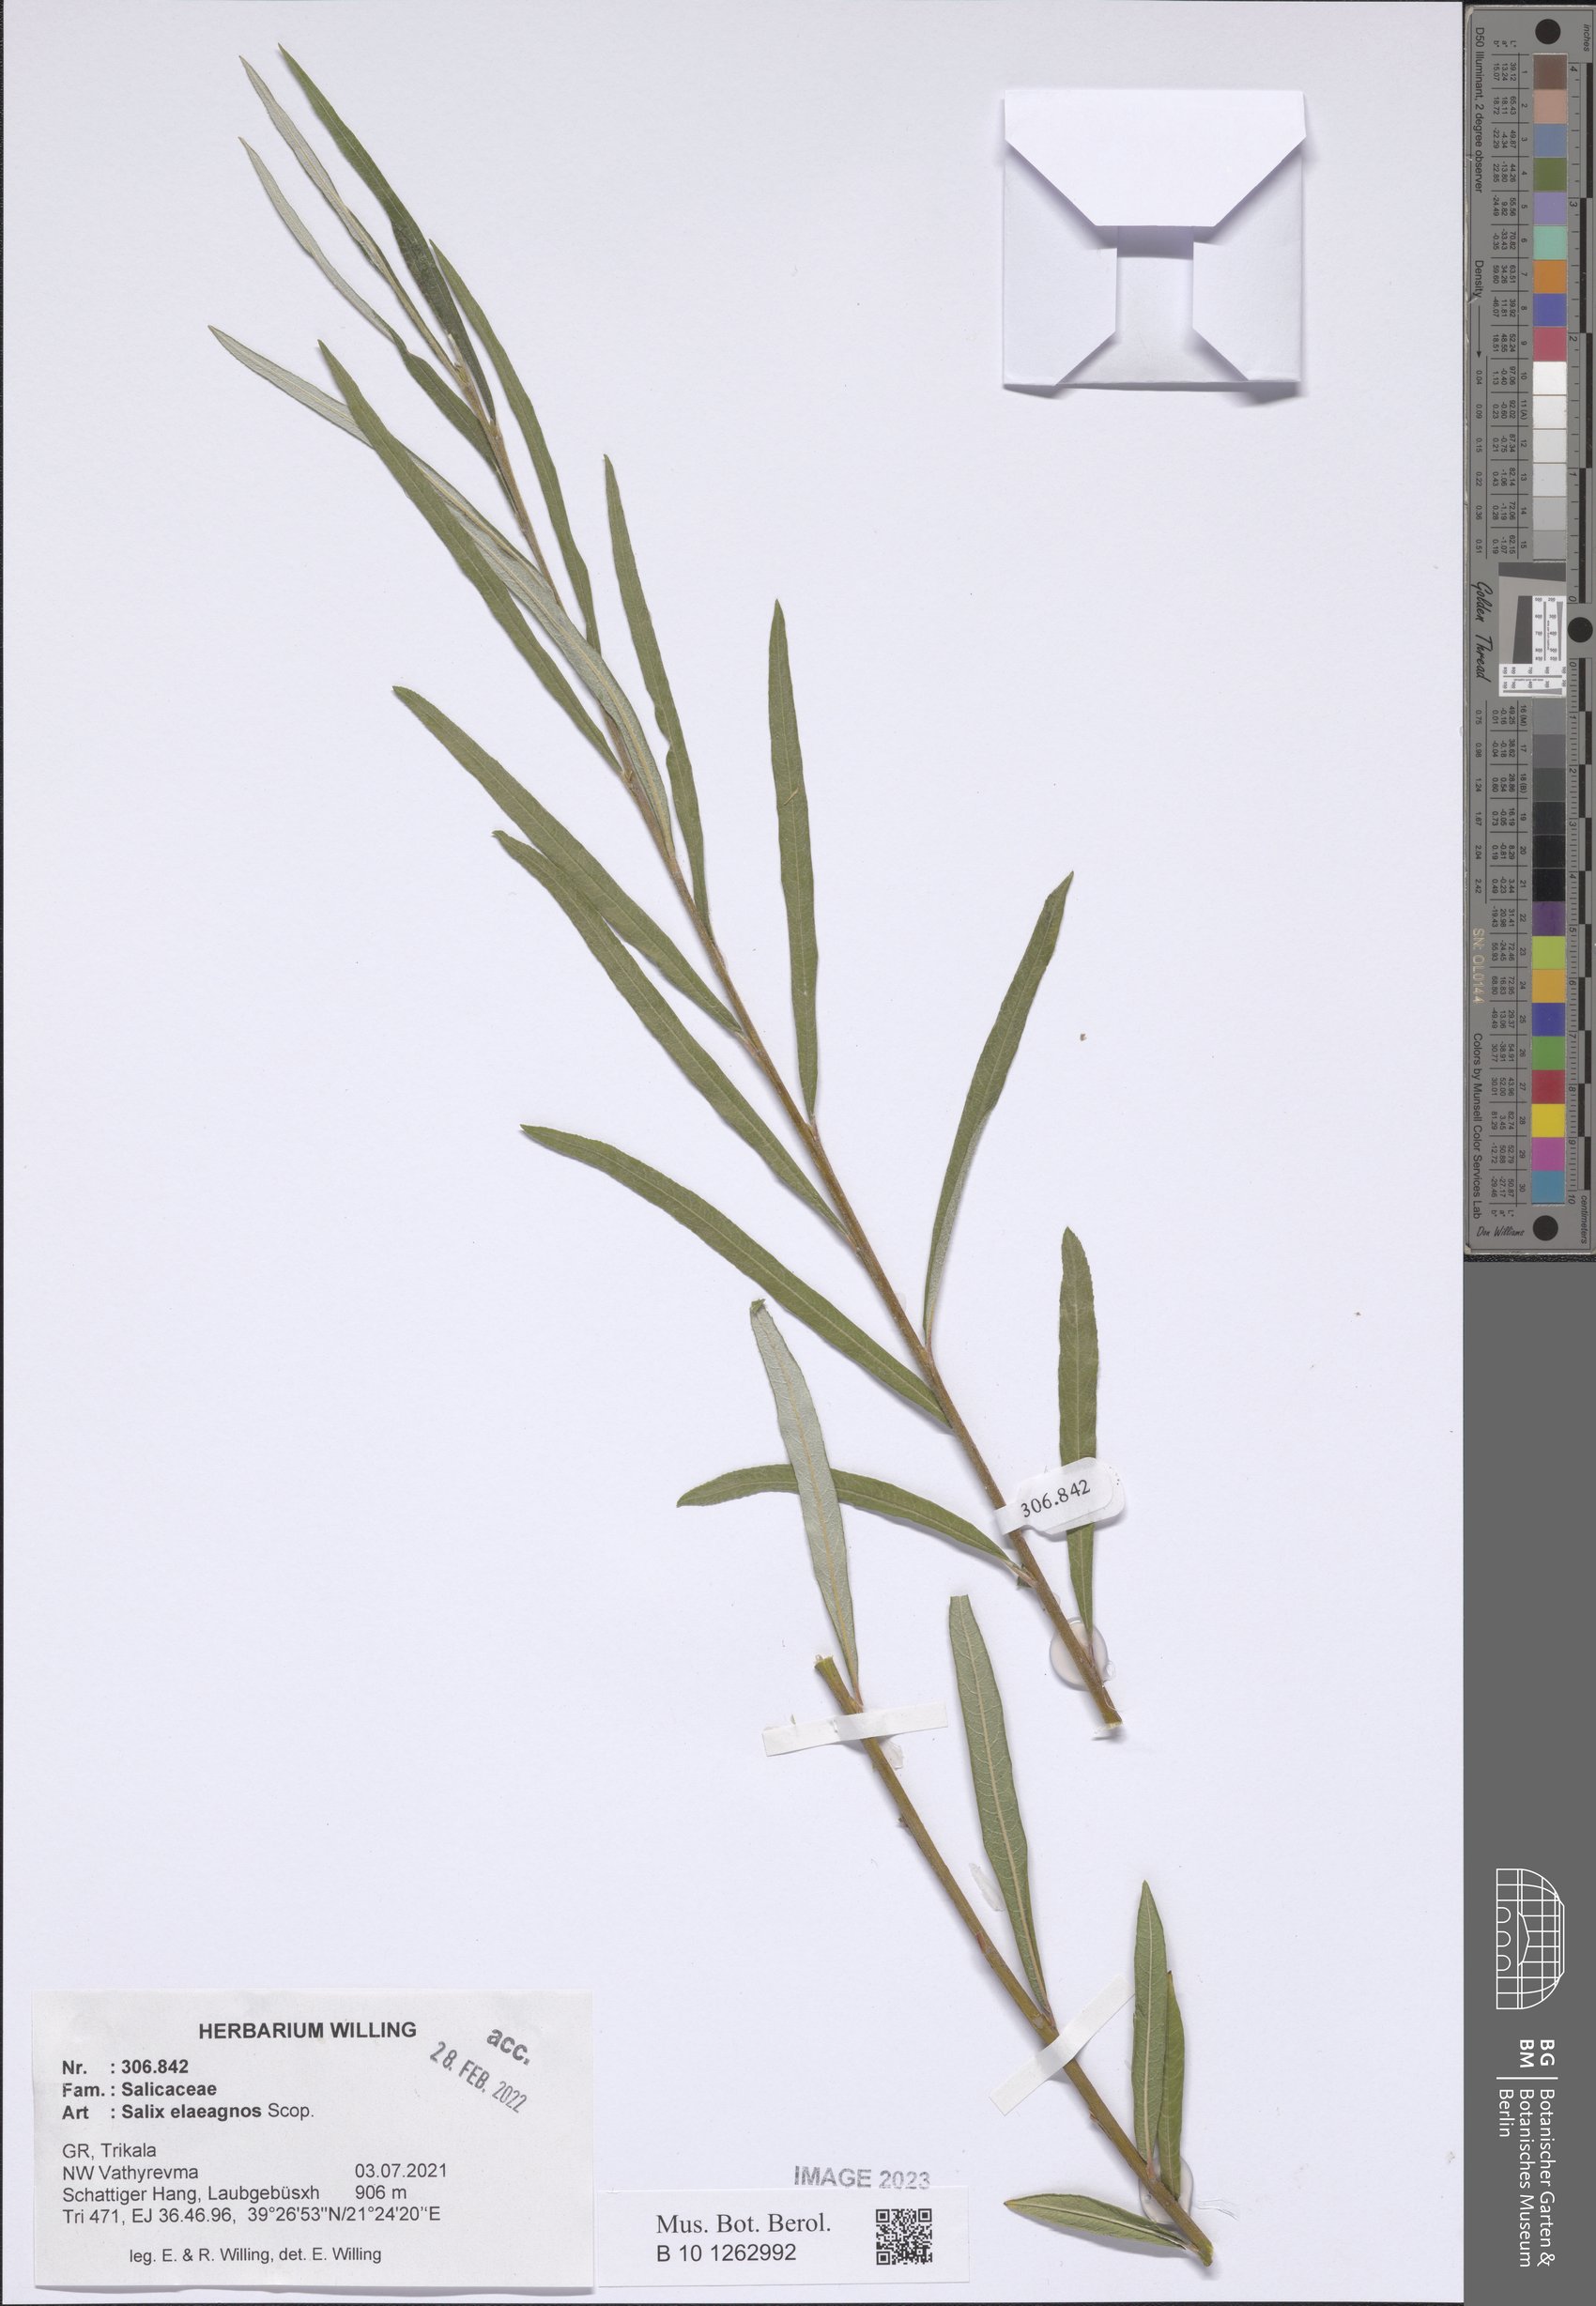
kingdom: Plantae
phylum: Tracheophyta
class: Magnoliopsida
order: Malpighiales
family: Salicaceae
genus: Salix
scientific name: Salix eleagnos
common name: Elaeagnus willow
